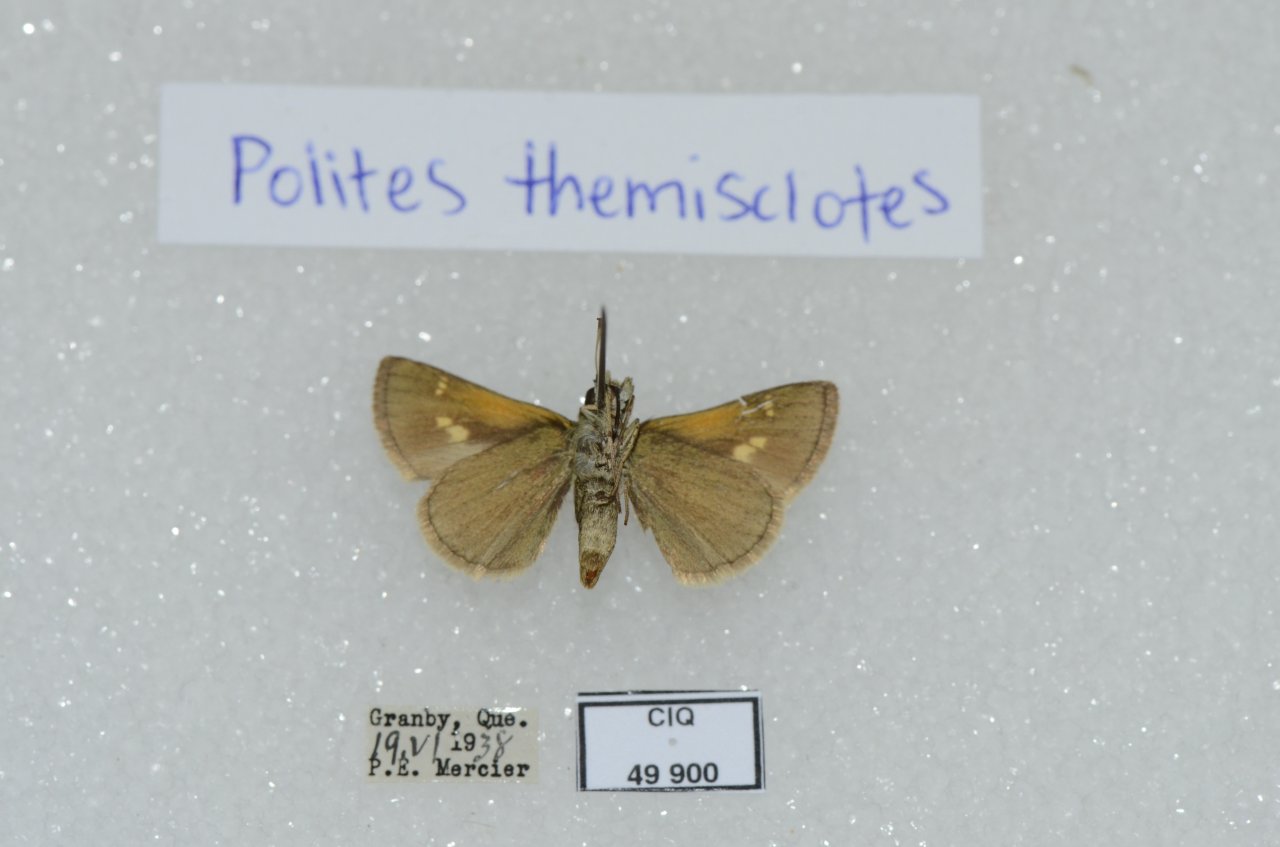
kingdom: Animalia
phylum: Arthropoda
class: Insecta
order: Lepidoptera
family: Hesperiidae
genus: Polites
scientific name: Polites themistocles
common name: Tawny-edged Skipper
